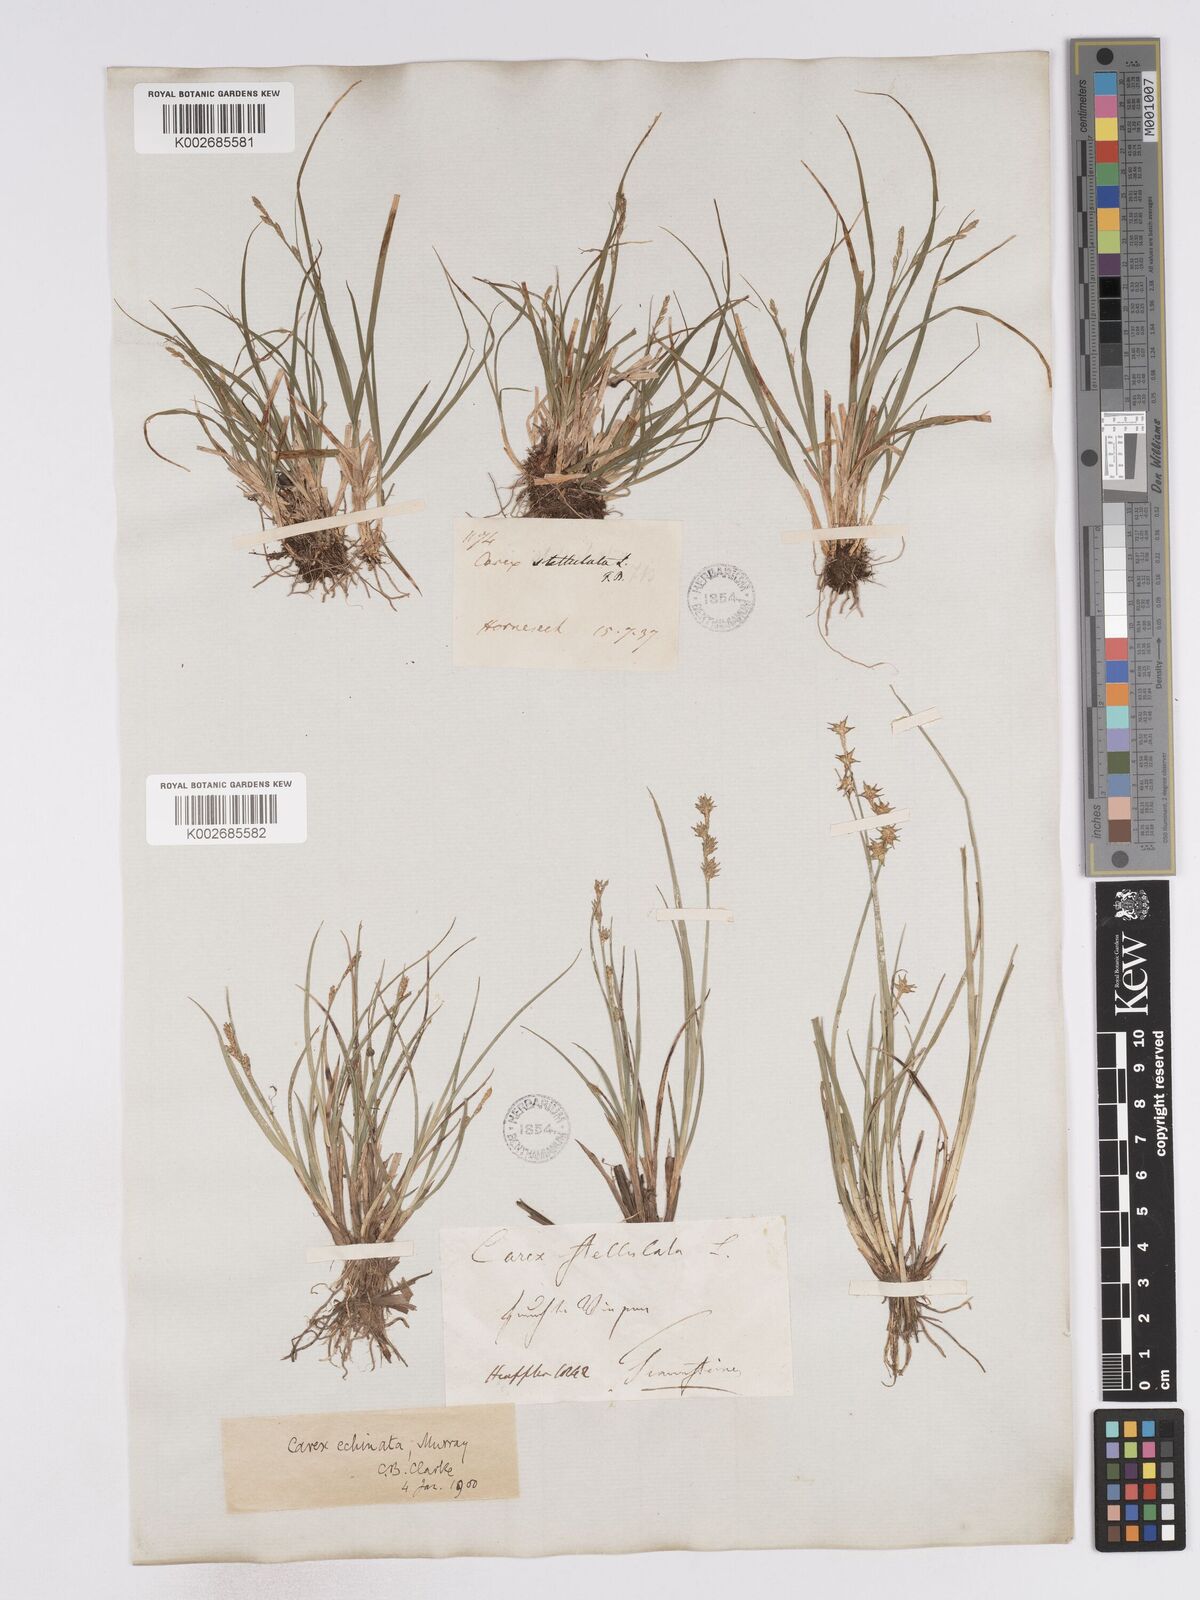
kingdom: Plantae
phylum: Tracheophyta
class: Liliopsida
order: Poales
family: Cyperaceae
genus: Carex
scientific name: Carex echinata
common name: Star sedge
